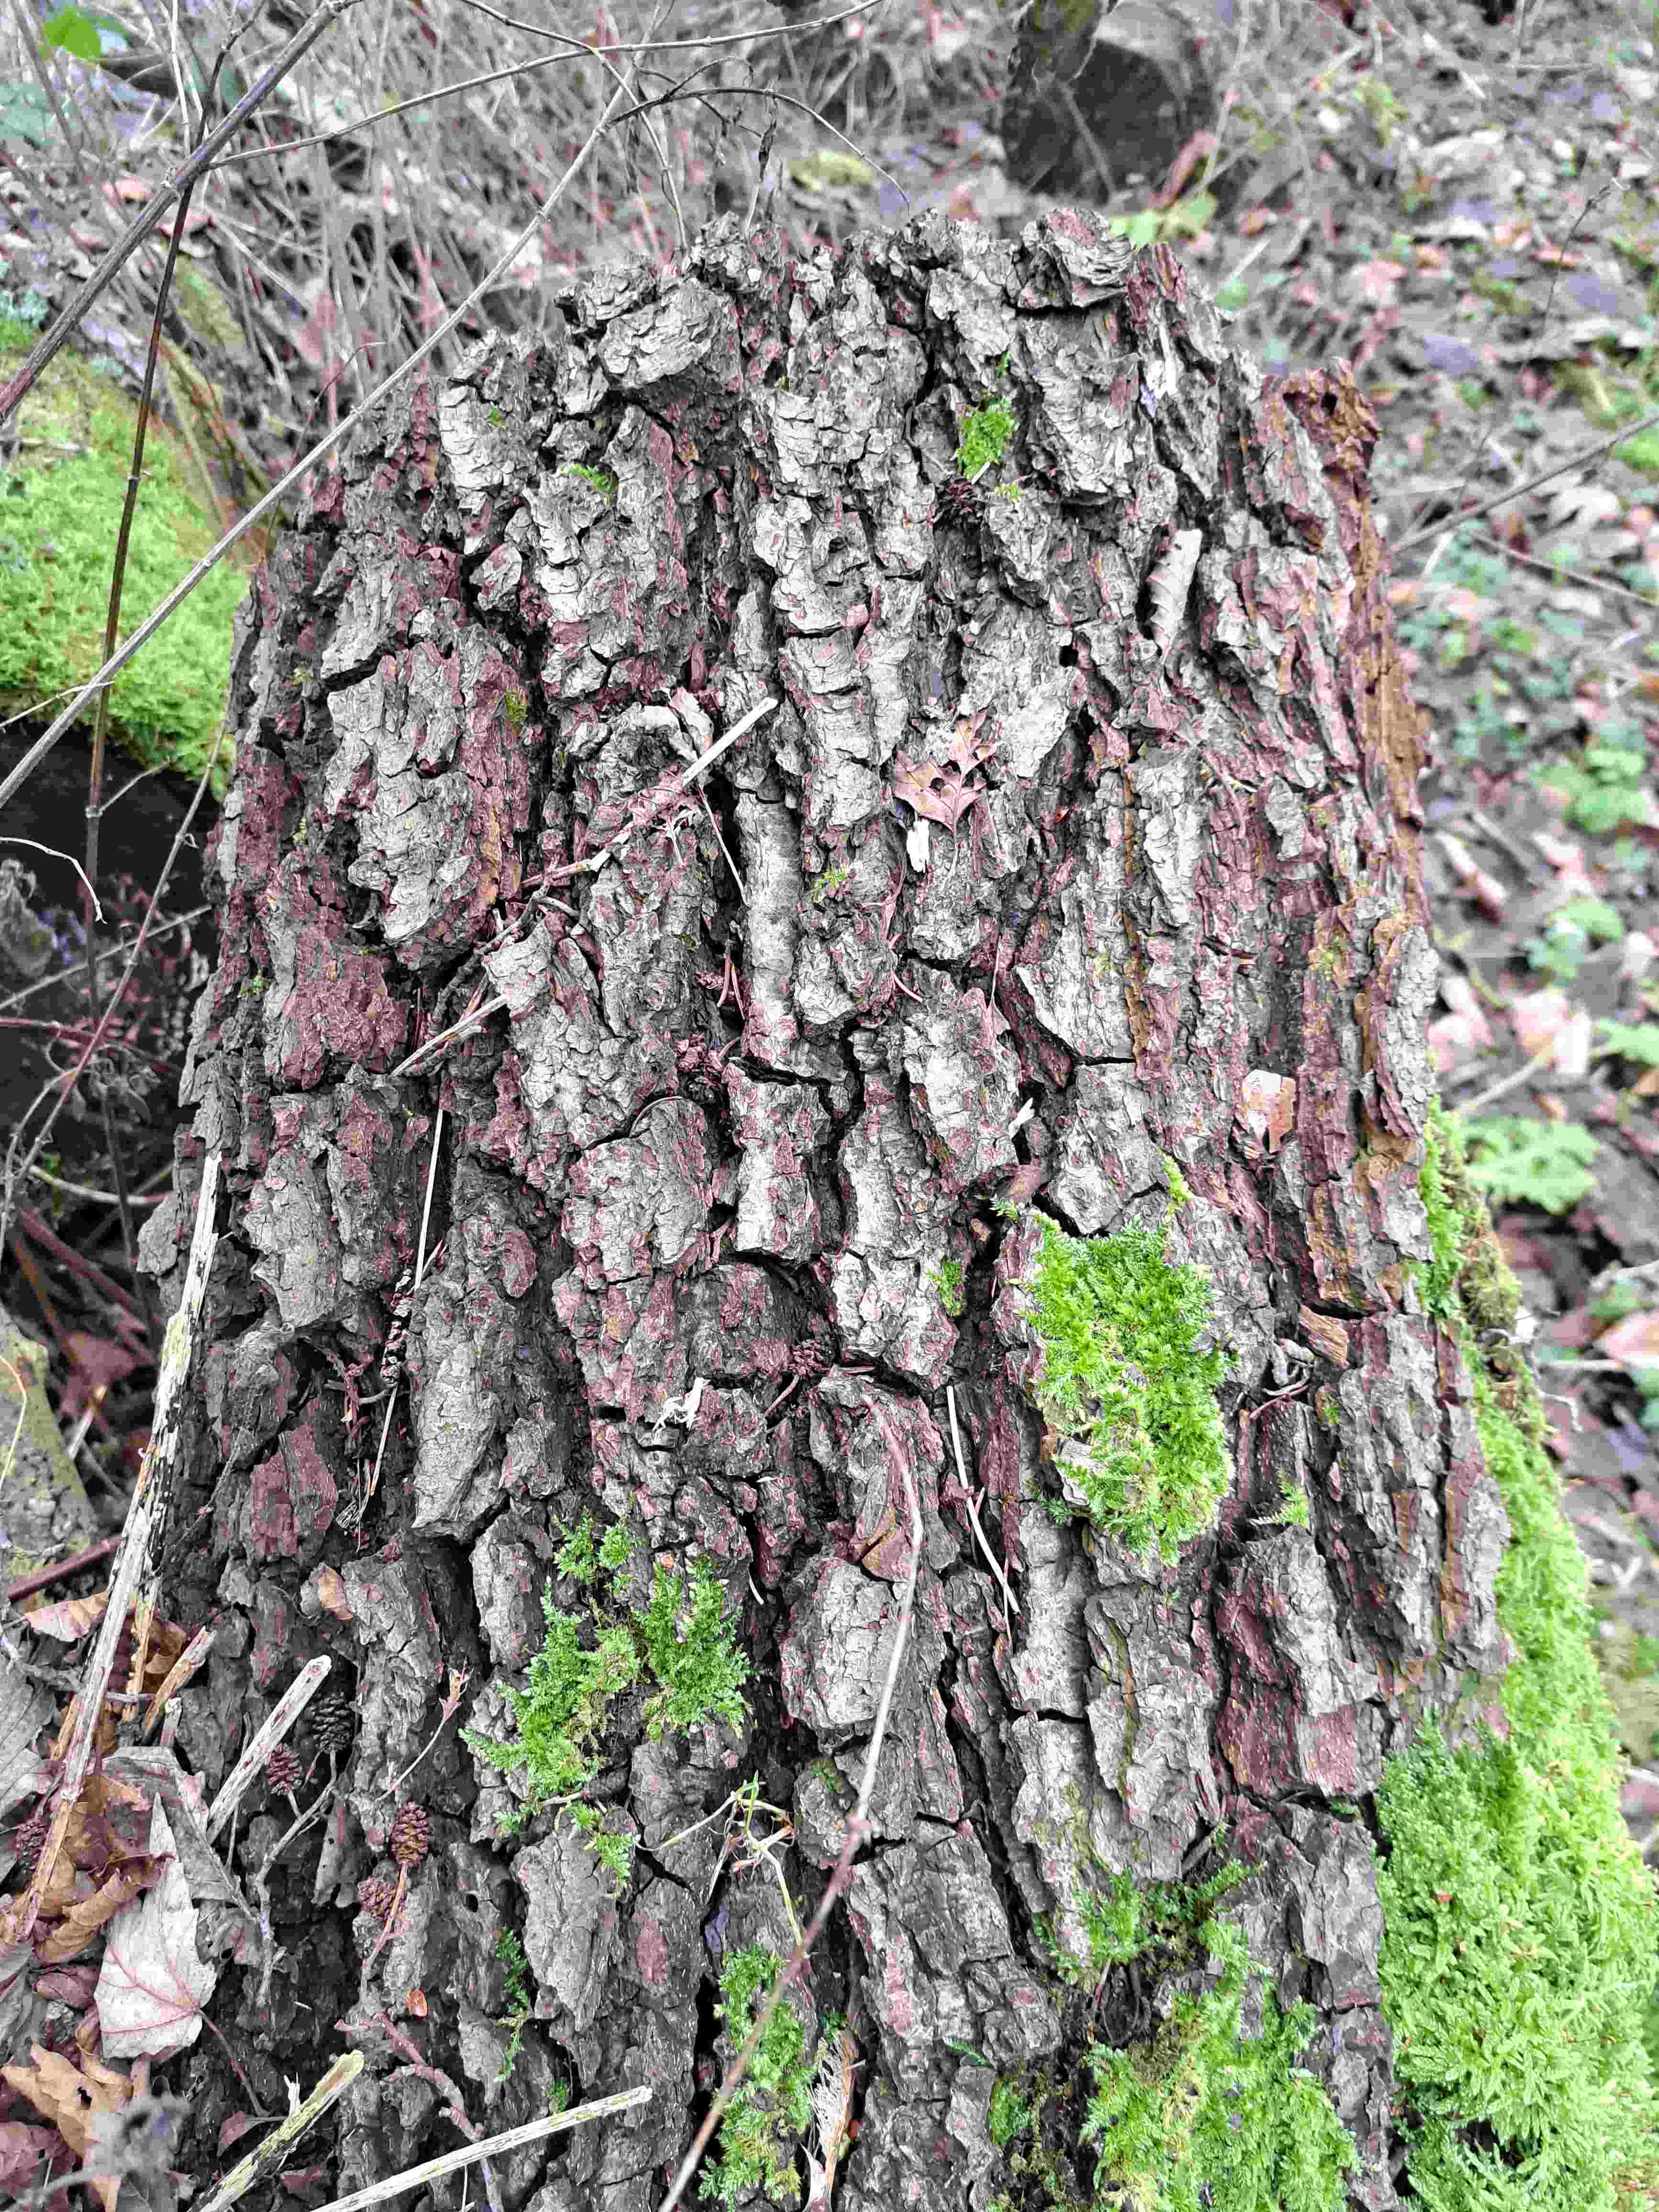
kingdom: Fungi
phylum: Basidiomycota
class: Agaricomycetes
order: Polyporales
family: Meruliaceae
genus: Phlebia
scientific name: Phlebia tremellosa
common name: bævrende åresvamp
